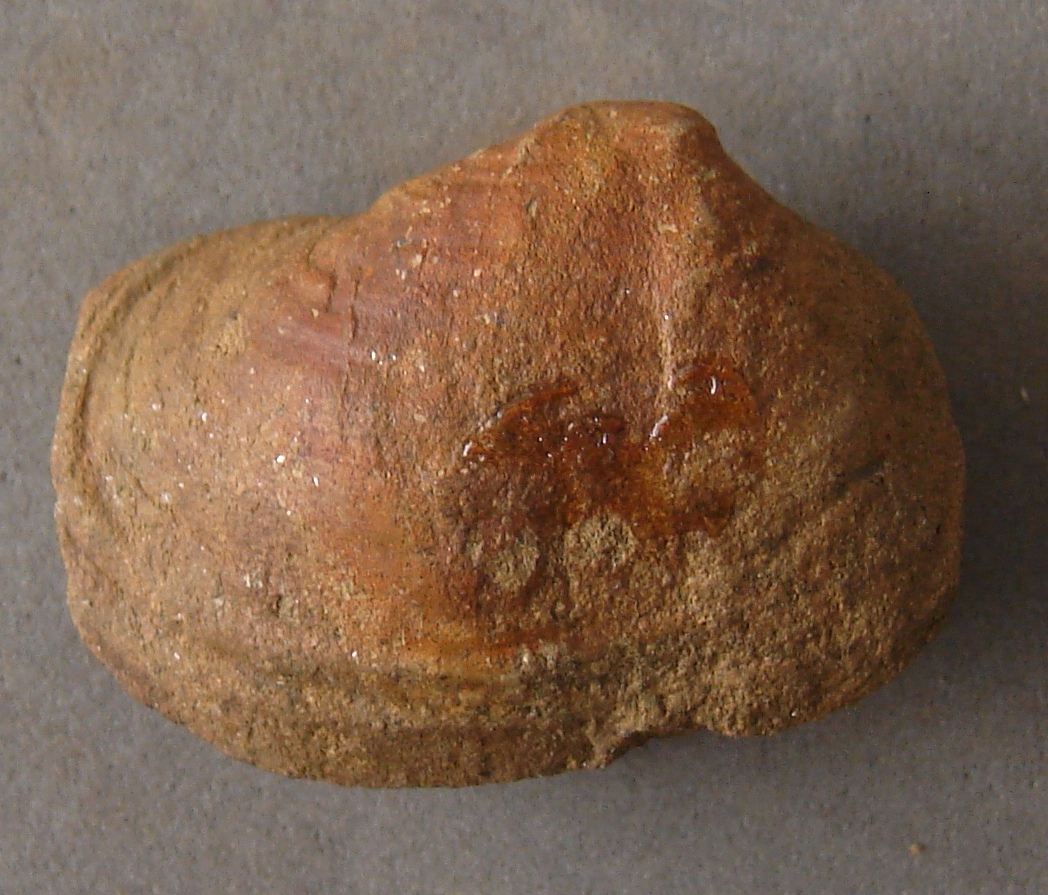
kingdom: Animalia
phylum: Mollusca
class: Bivalvia
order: Myida
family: Pleuromyidae
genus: Pleuromya
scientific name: Pleuromya Venus unioides
